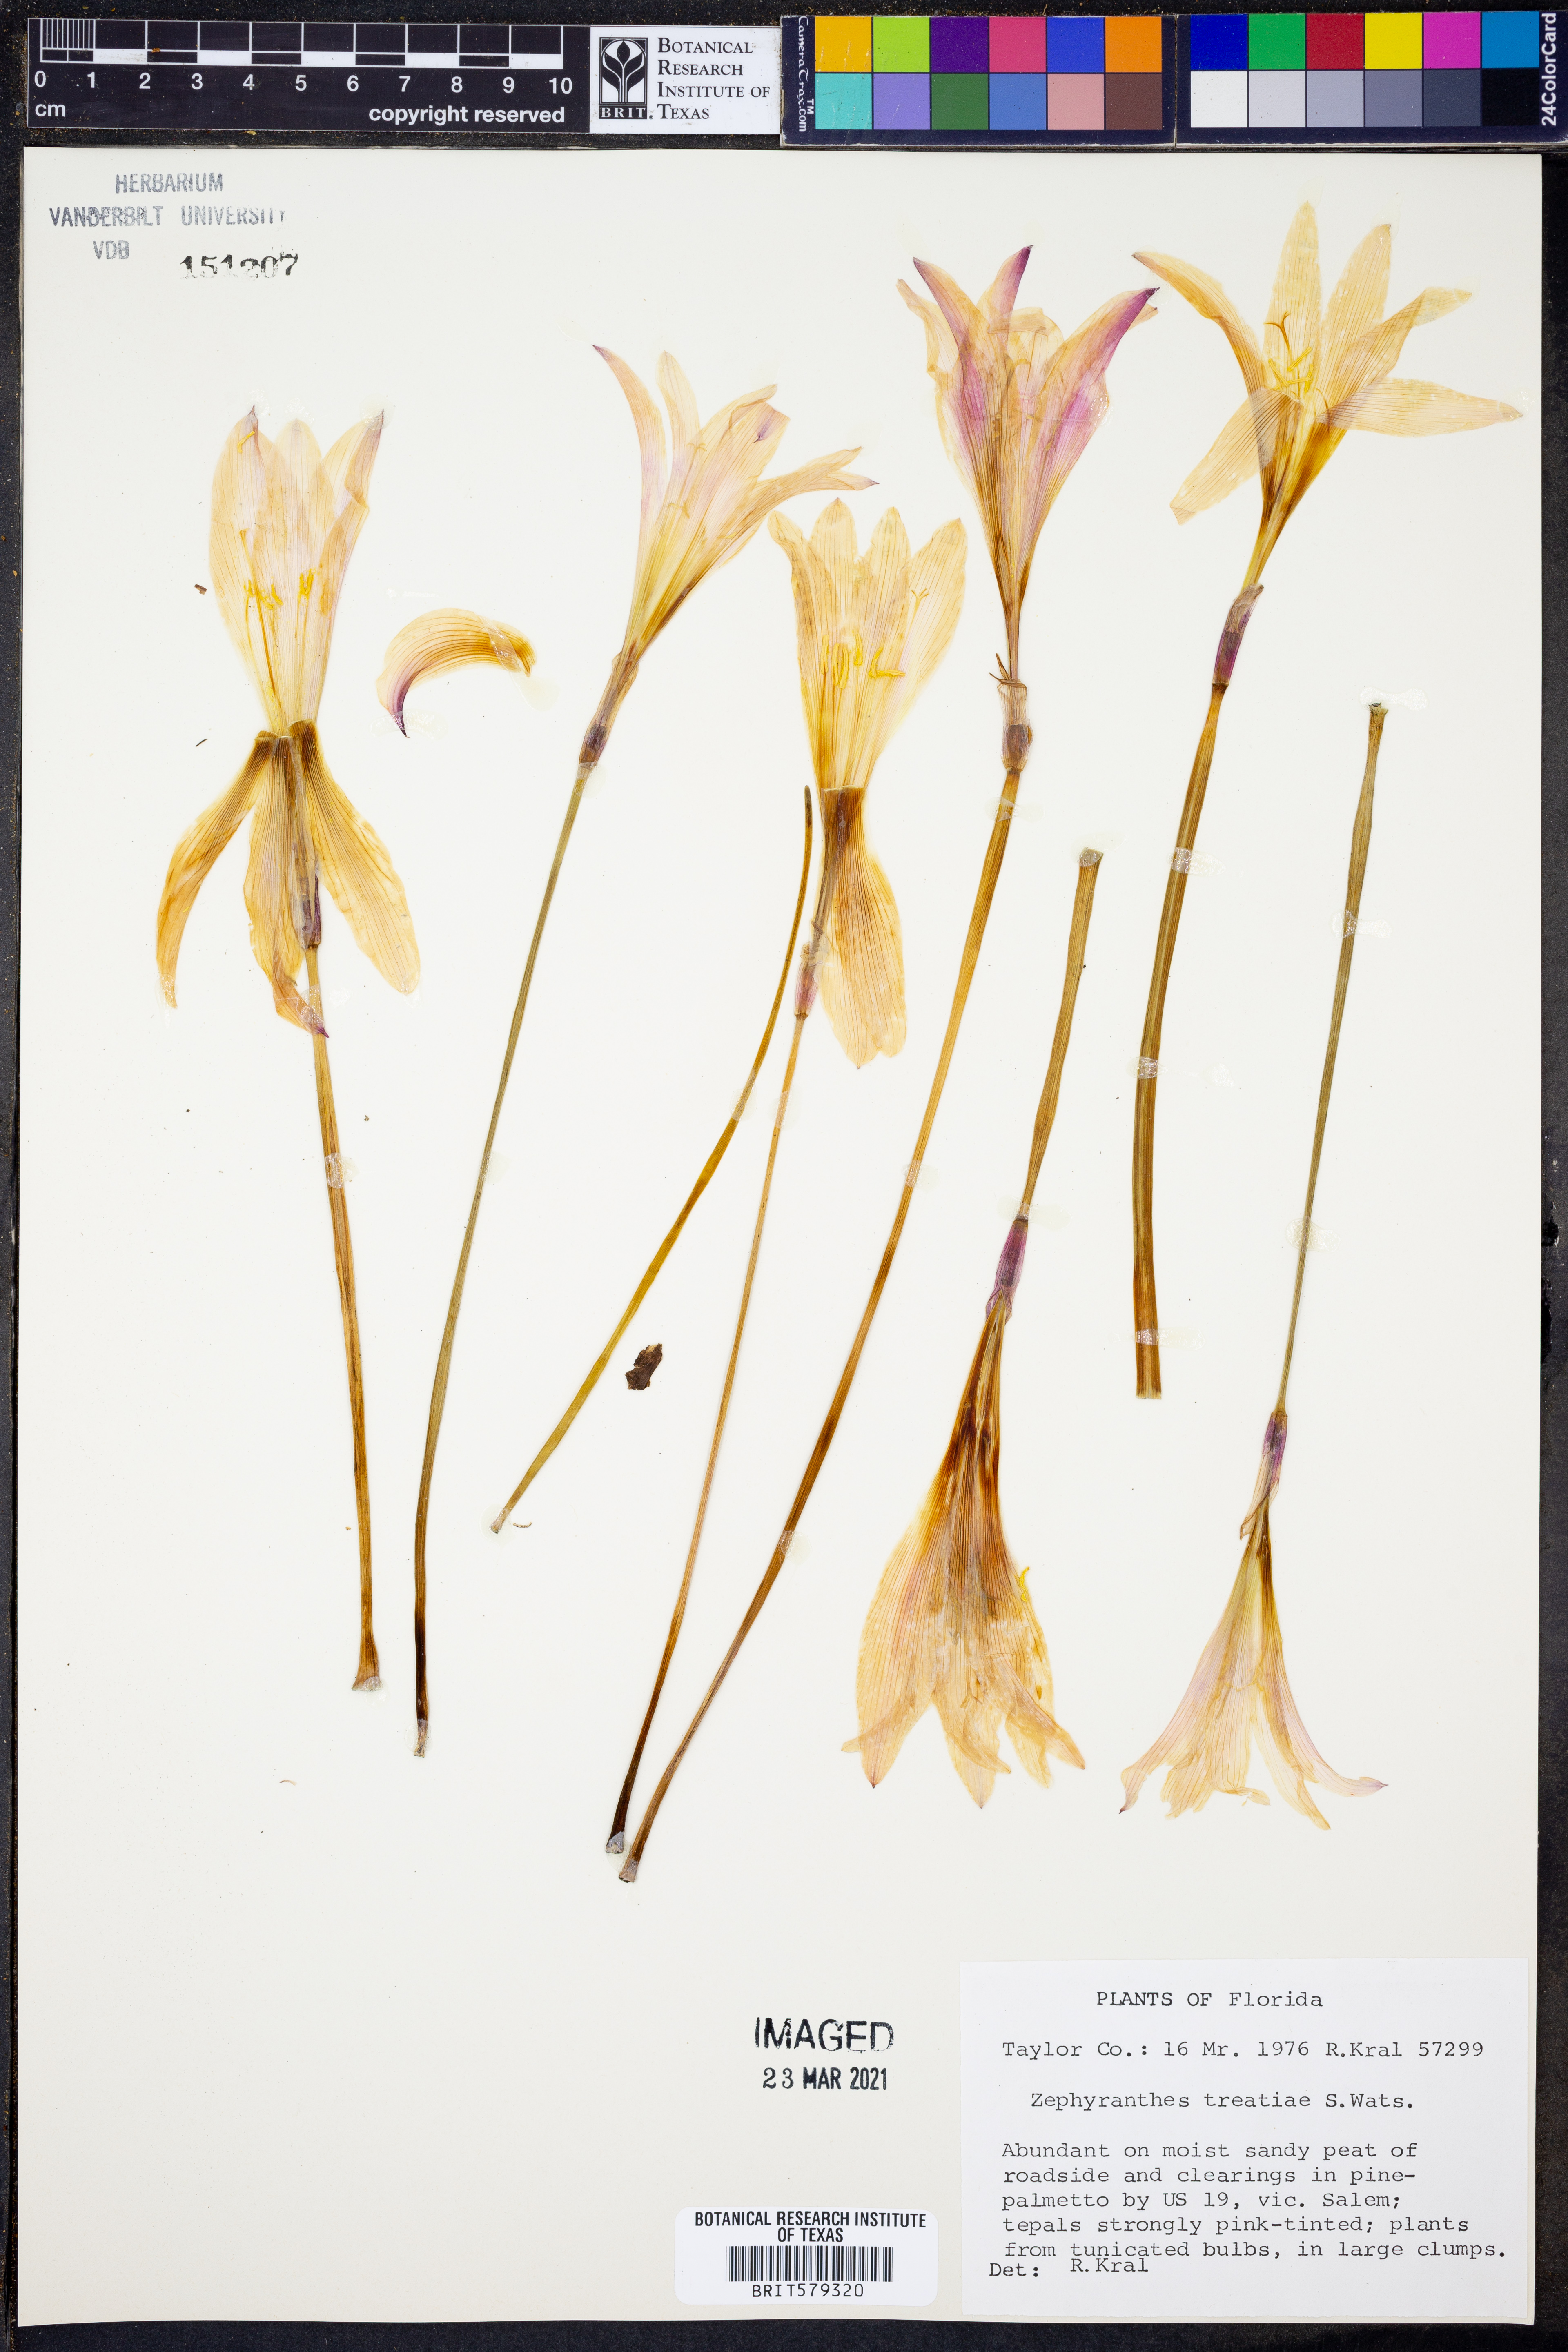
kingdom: Plantae
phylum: Tracheophyta
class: Liliopsida
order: Asparagales
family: Amaryllidaceae
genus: Zephyranthes
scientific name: Zephyranthes treatiae
